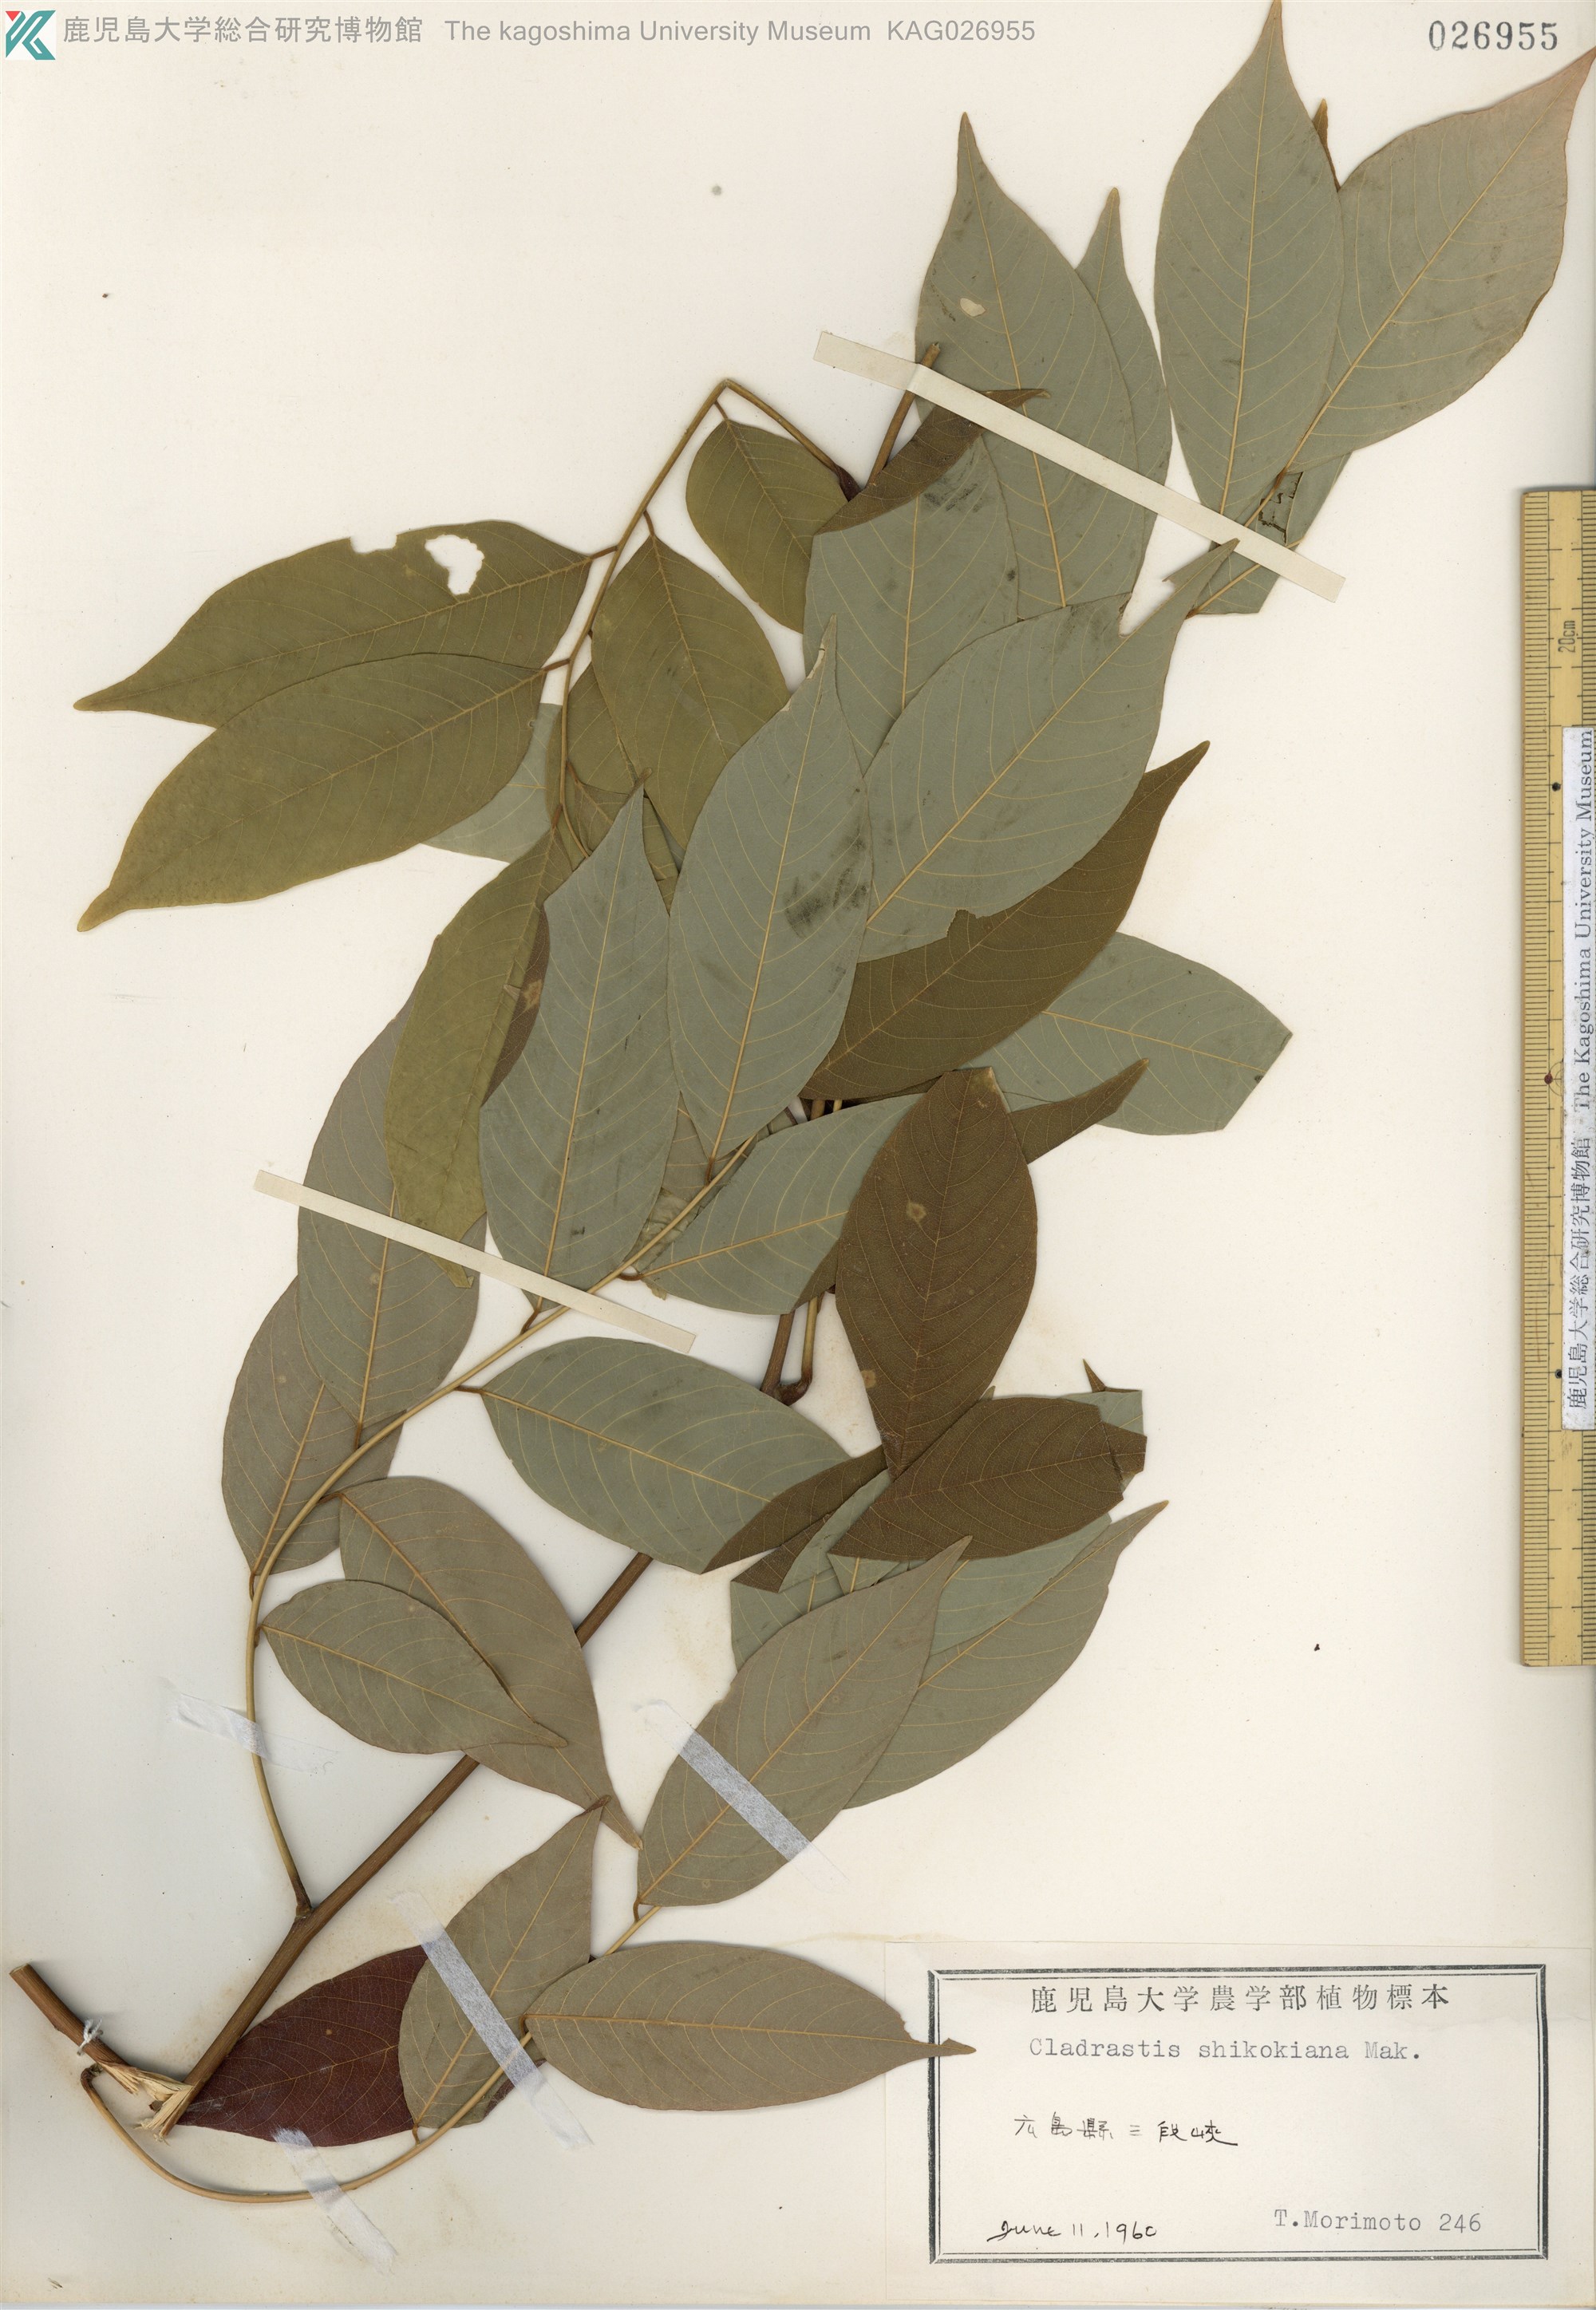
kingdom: Plantae
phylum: Tracheophyta
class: Magnoliopsida
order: Fabales
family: Fabaceae
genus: Cladrastis
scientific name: Cladrastis shikokiana
